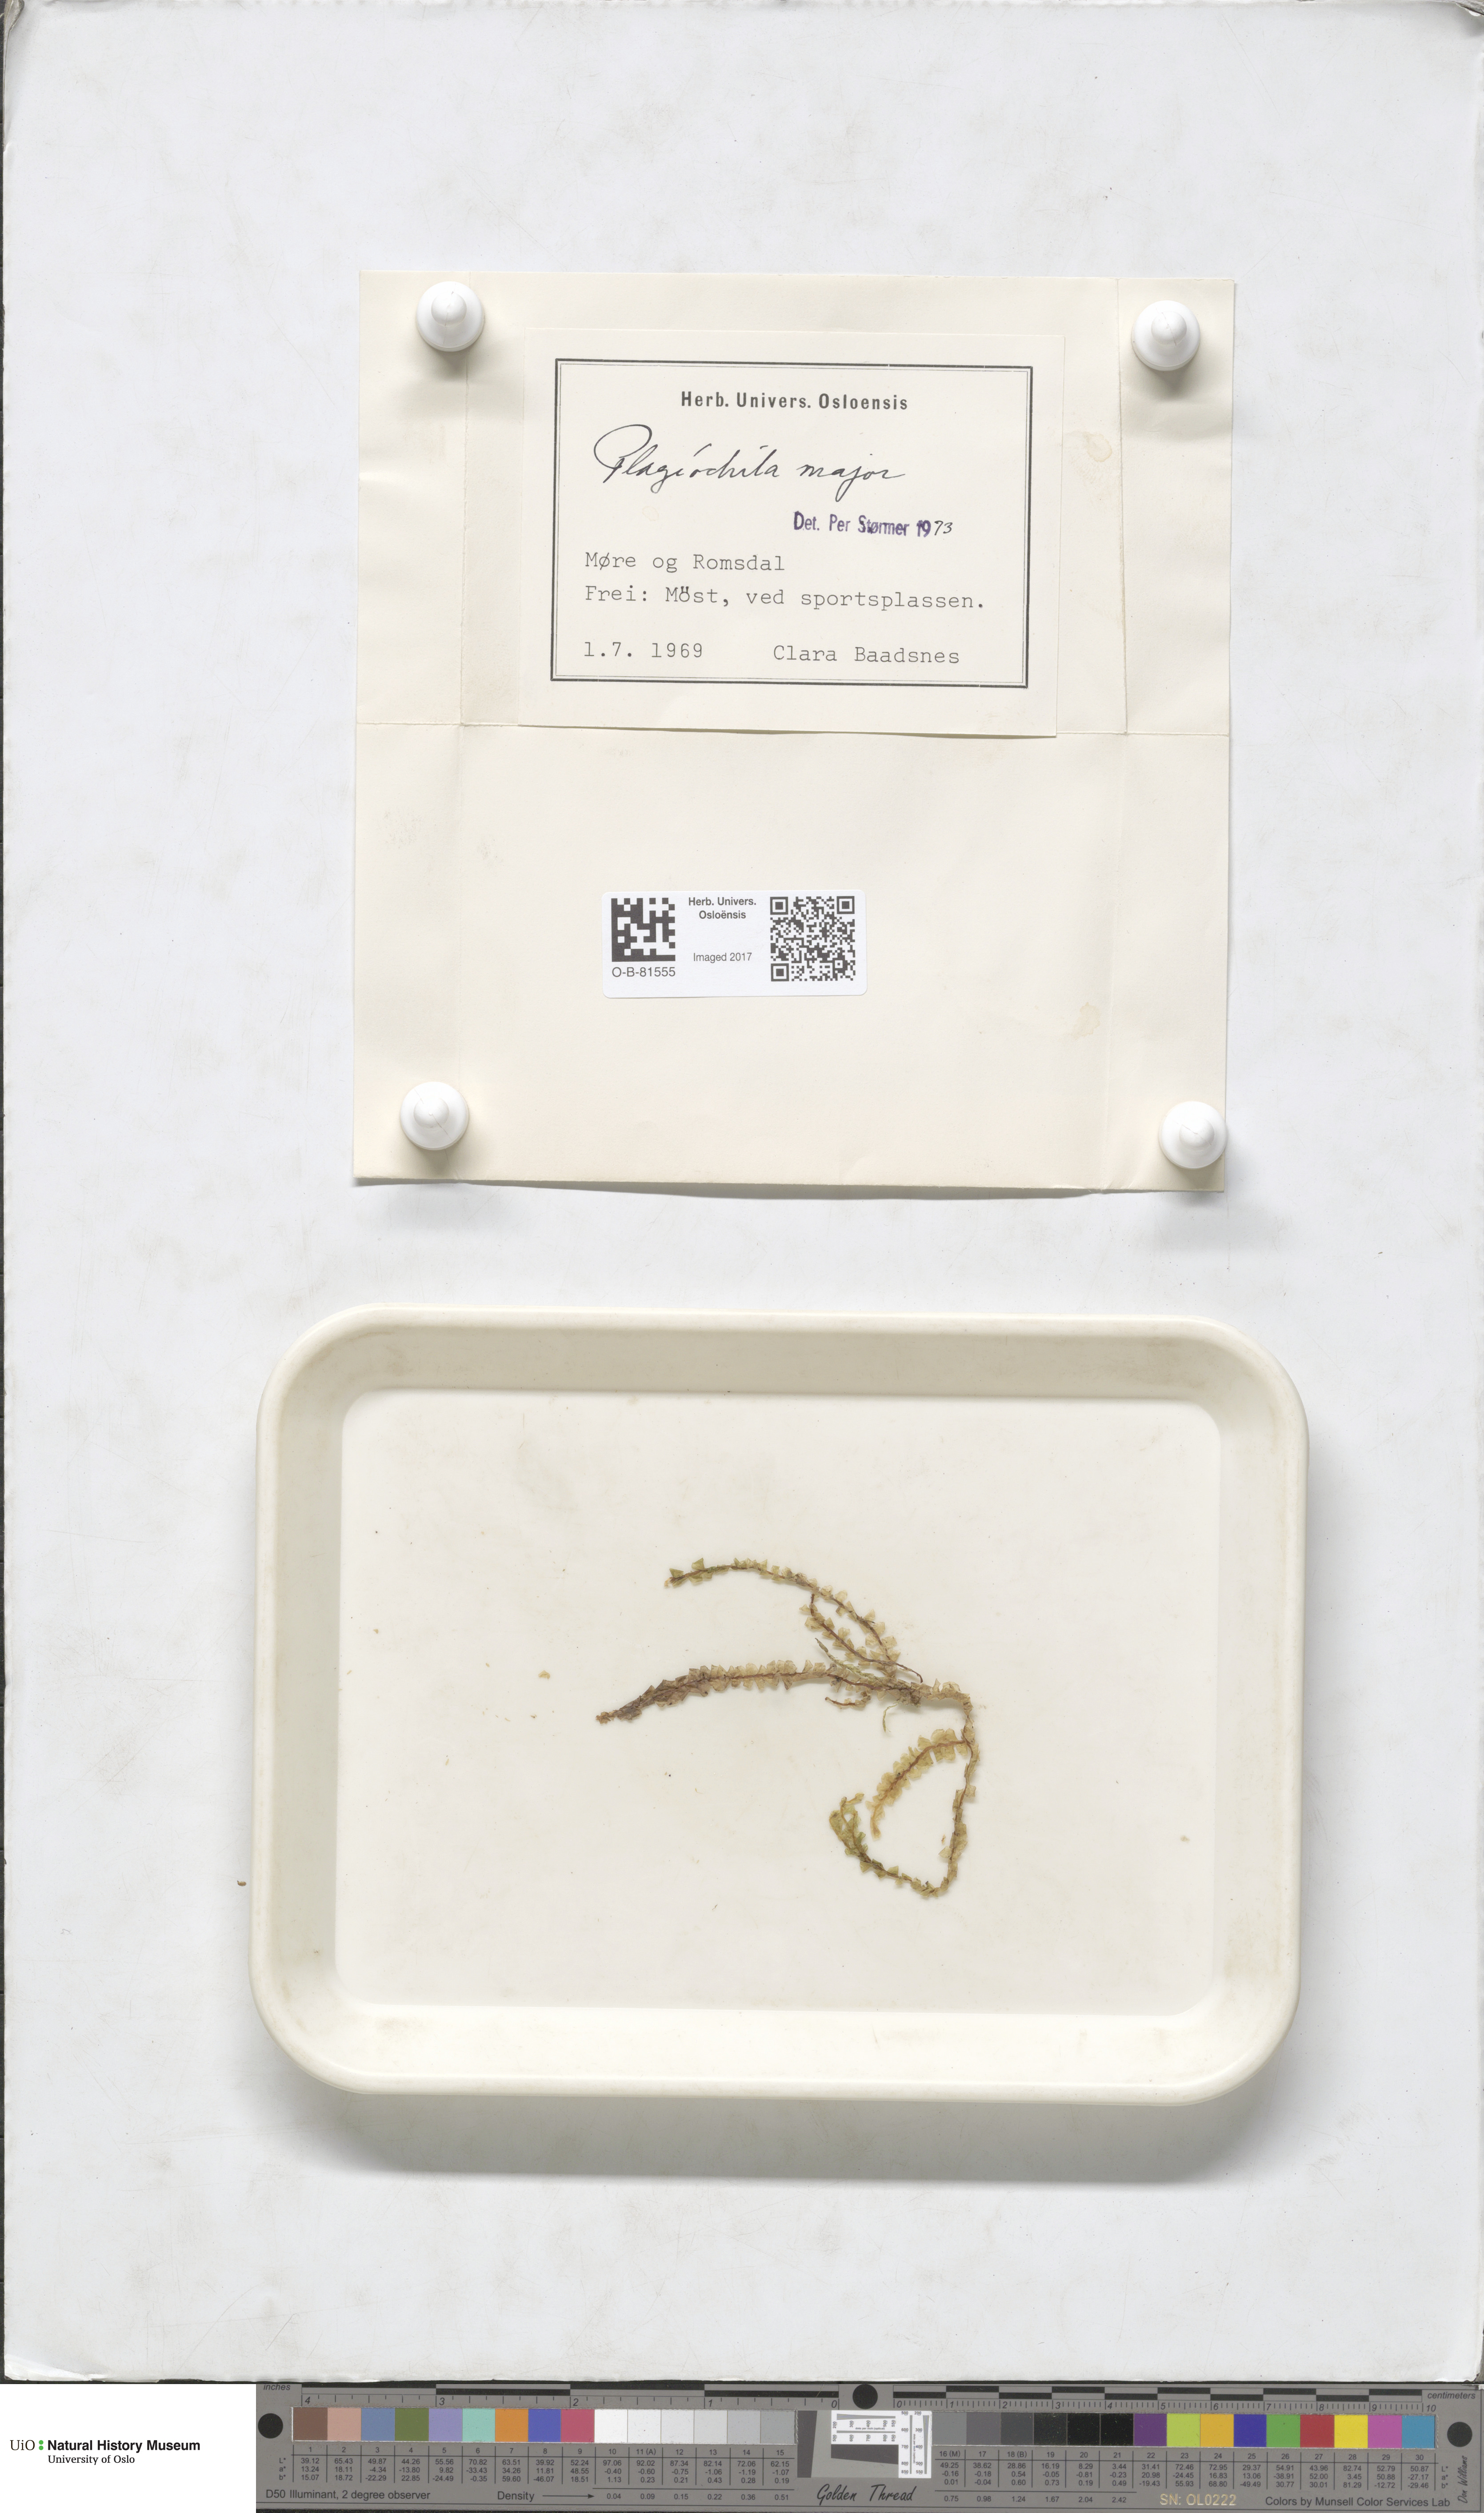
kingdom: Plantae
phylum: Marchantiophyta
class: Jungermanniopsida
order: Jungermanniales
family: Plagiochilaceae
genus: Plagiochila
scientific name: Plagiochila asplenioides
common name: Greater featherwort
